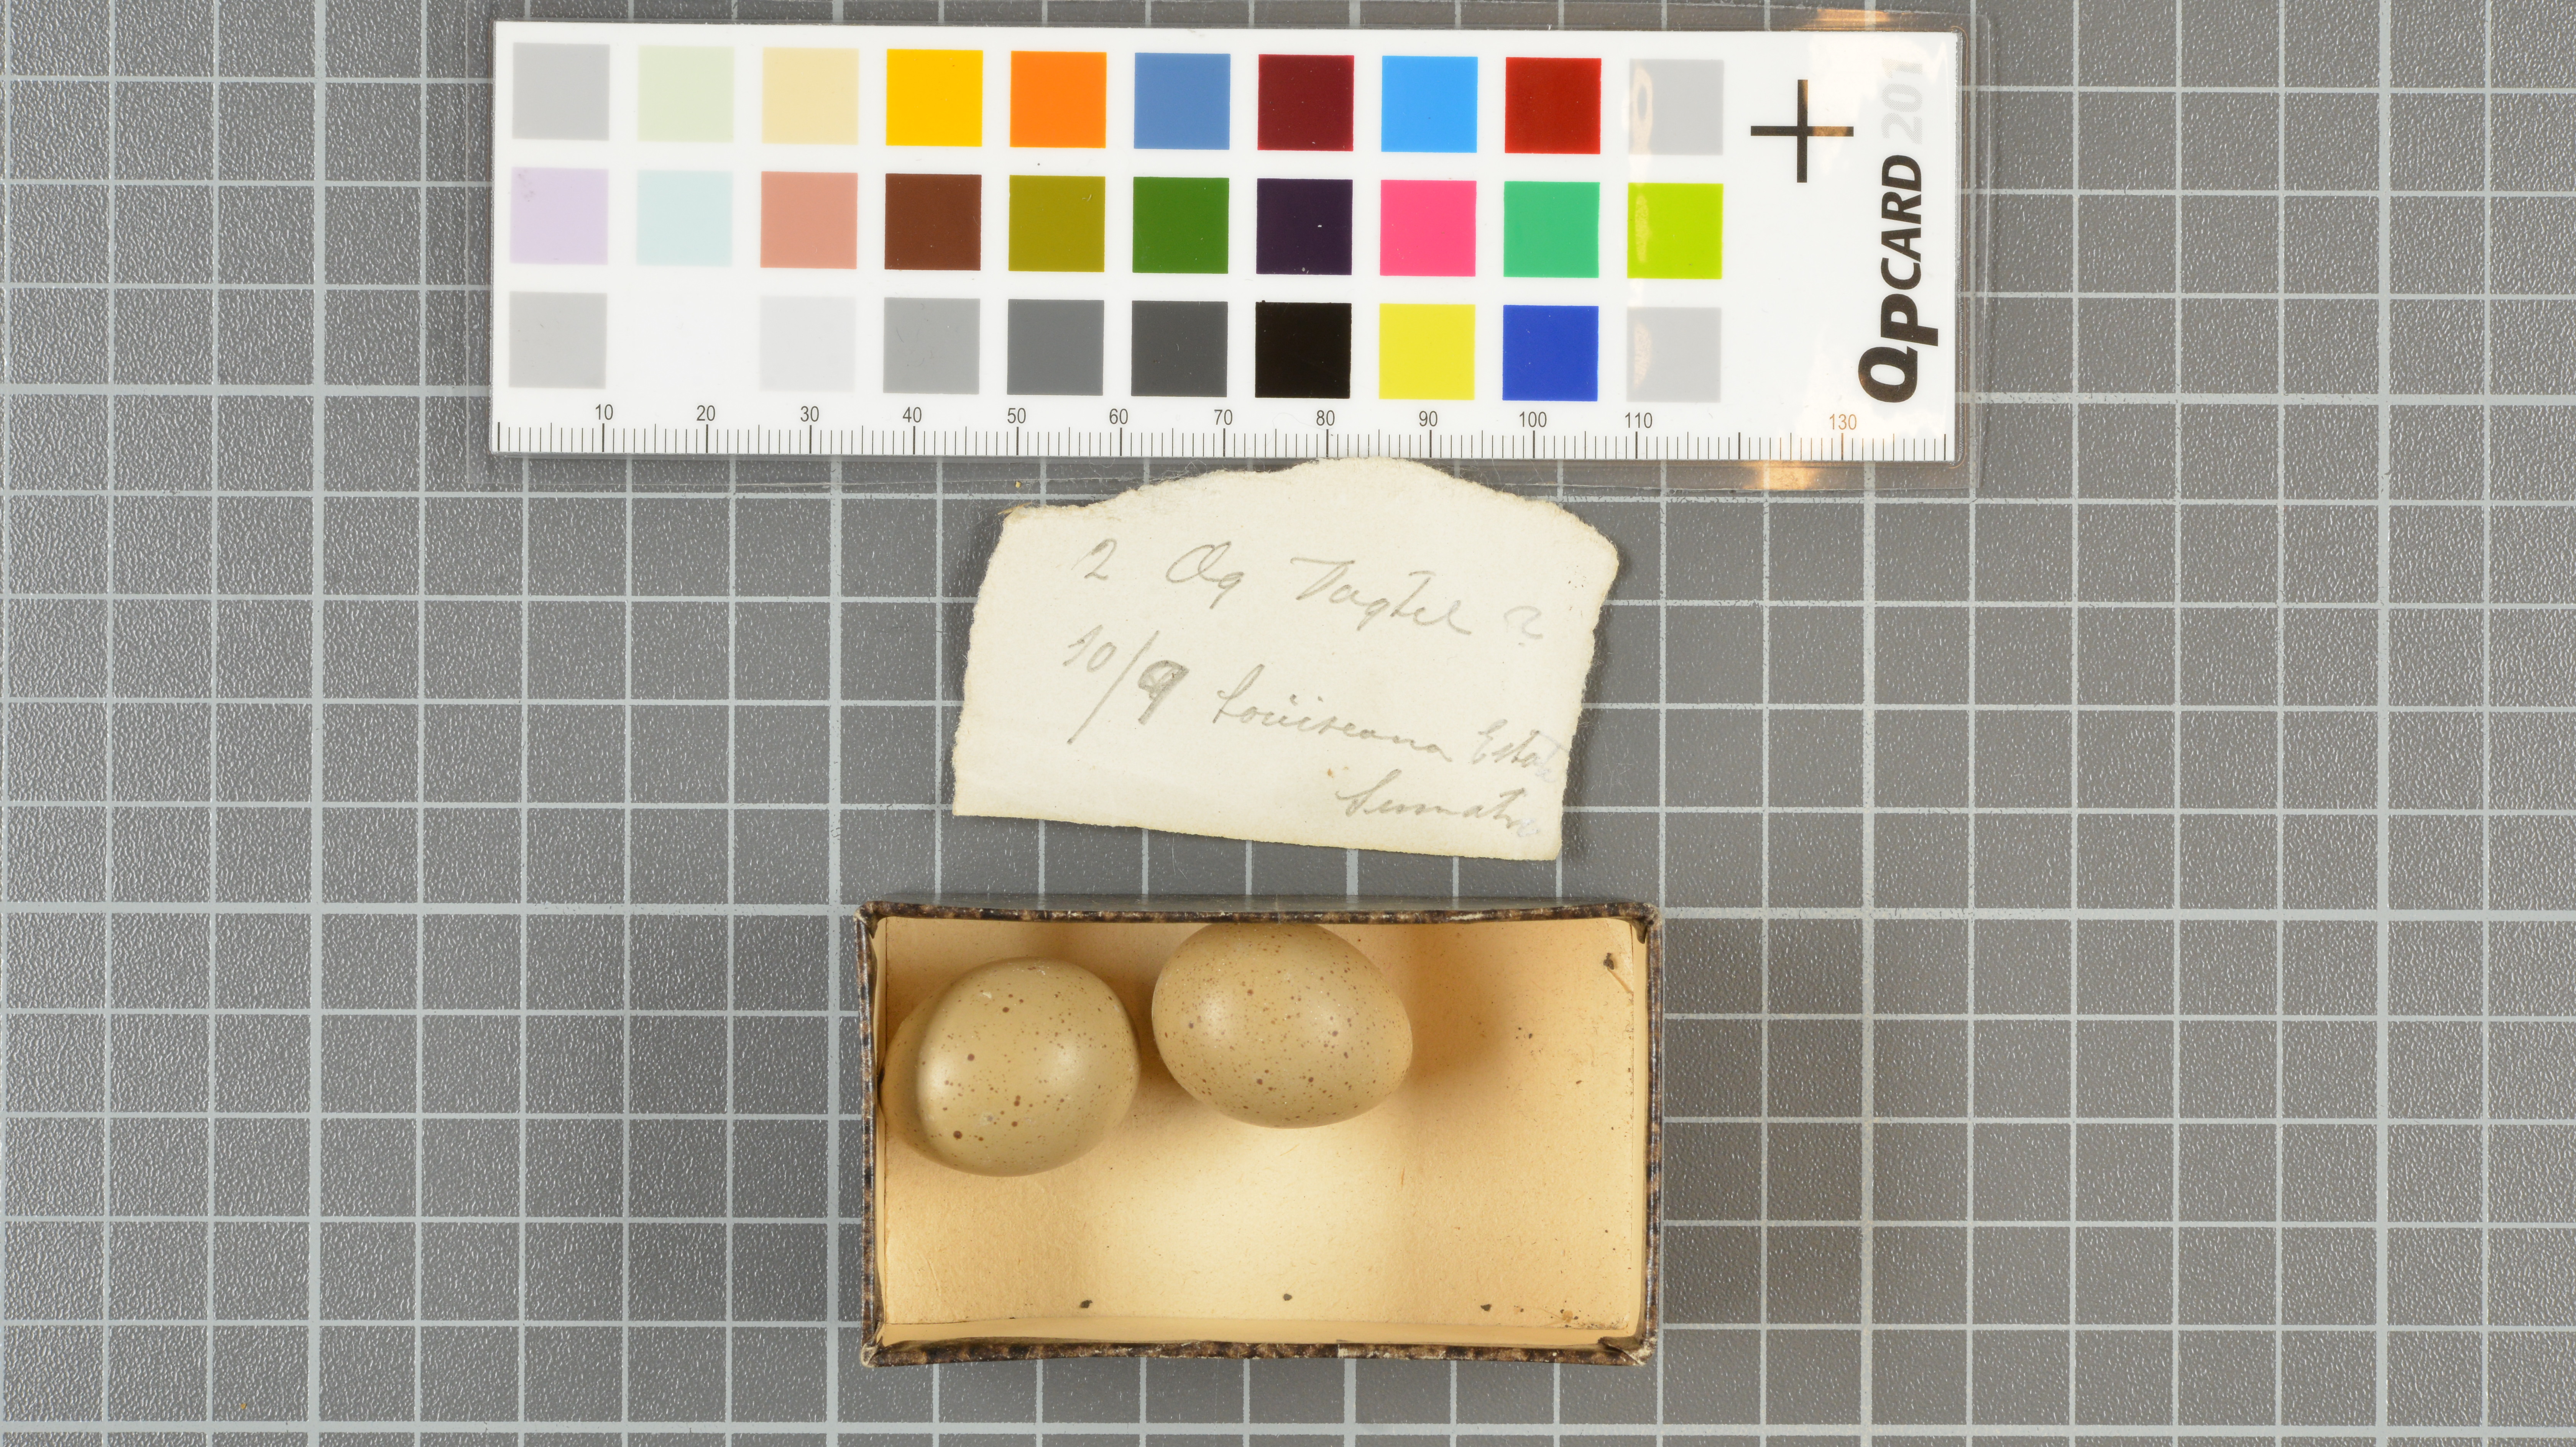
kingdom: Animalia
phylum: Chordata
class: Aves
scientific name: Aves
